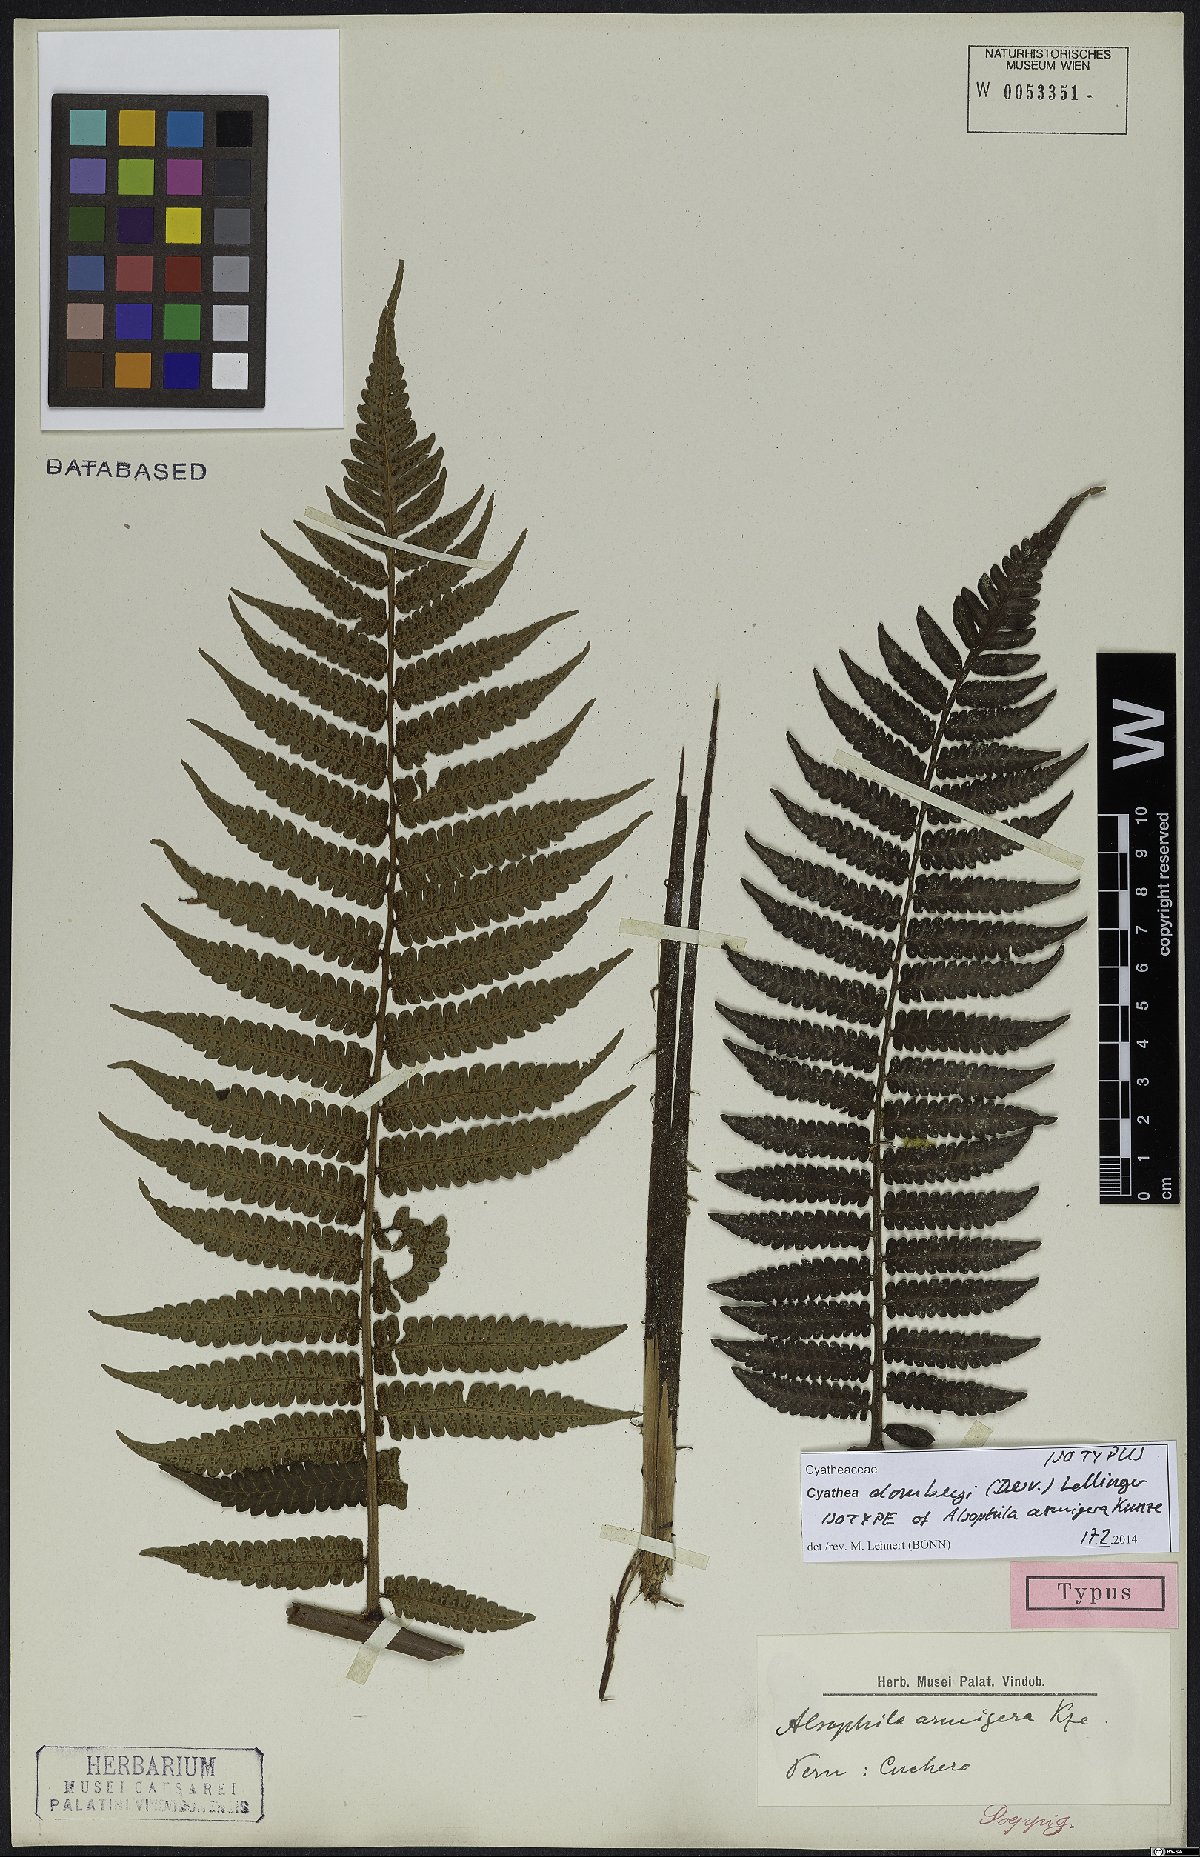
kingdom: Plantae
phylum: Tracheophyta
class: Polypodiopsida
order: Cyatheales
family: Cyatheaceae
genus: Cyathea
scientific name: Cyathea dombeyi
